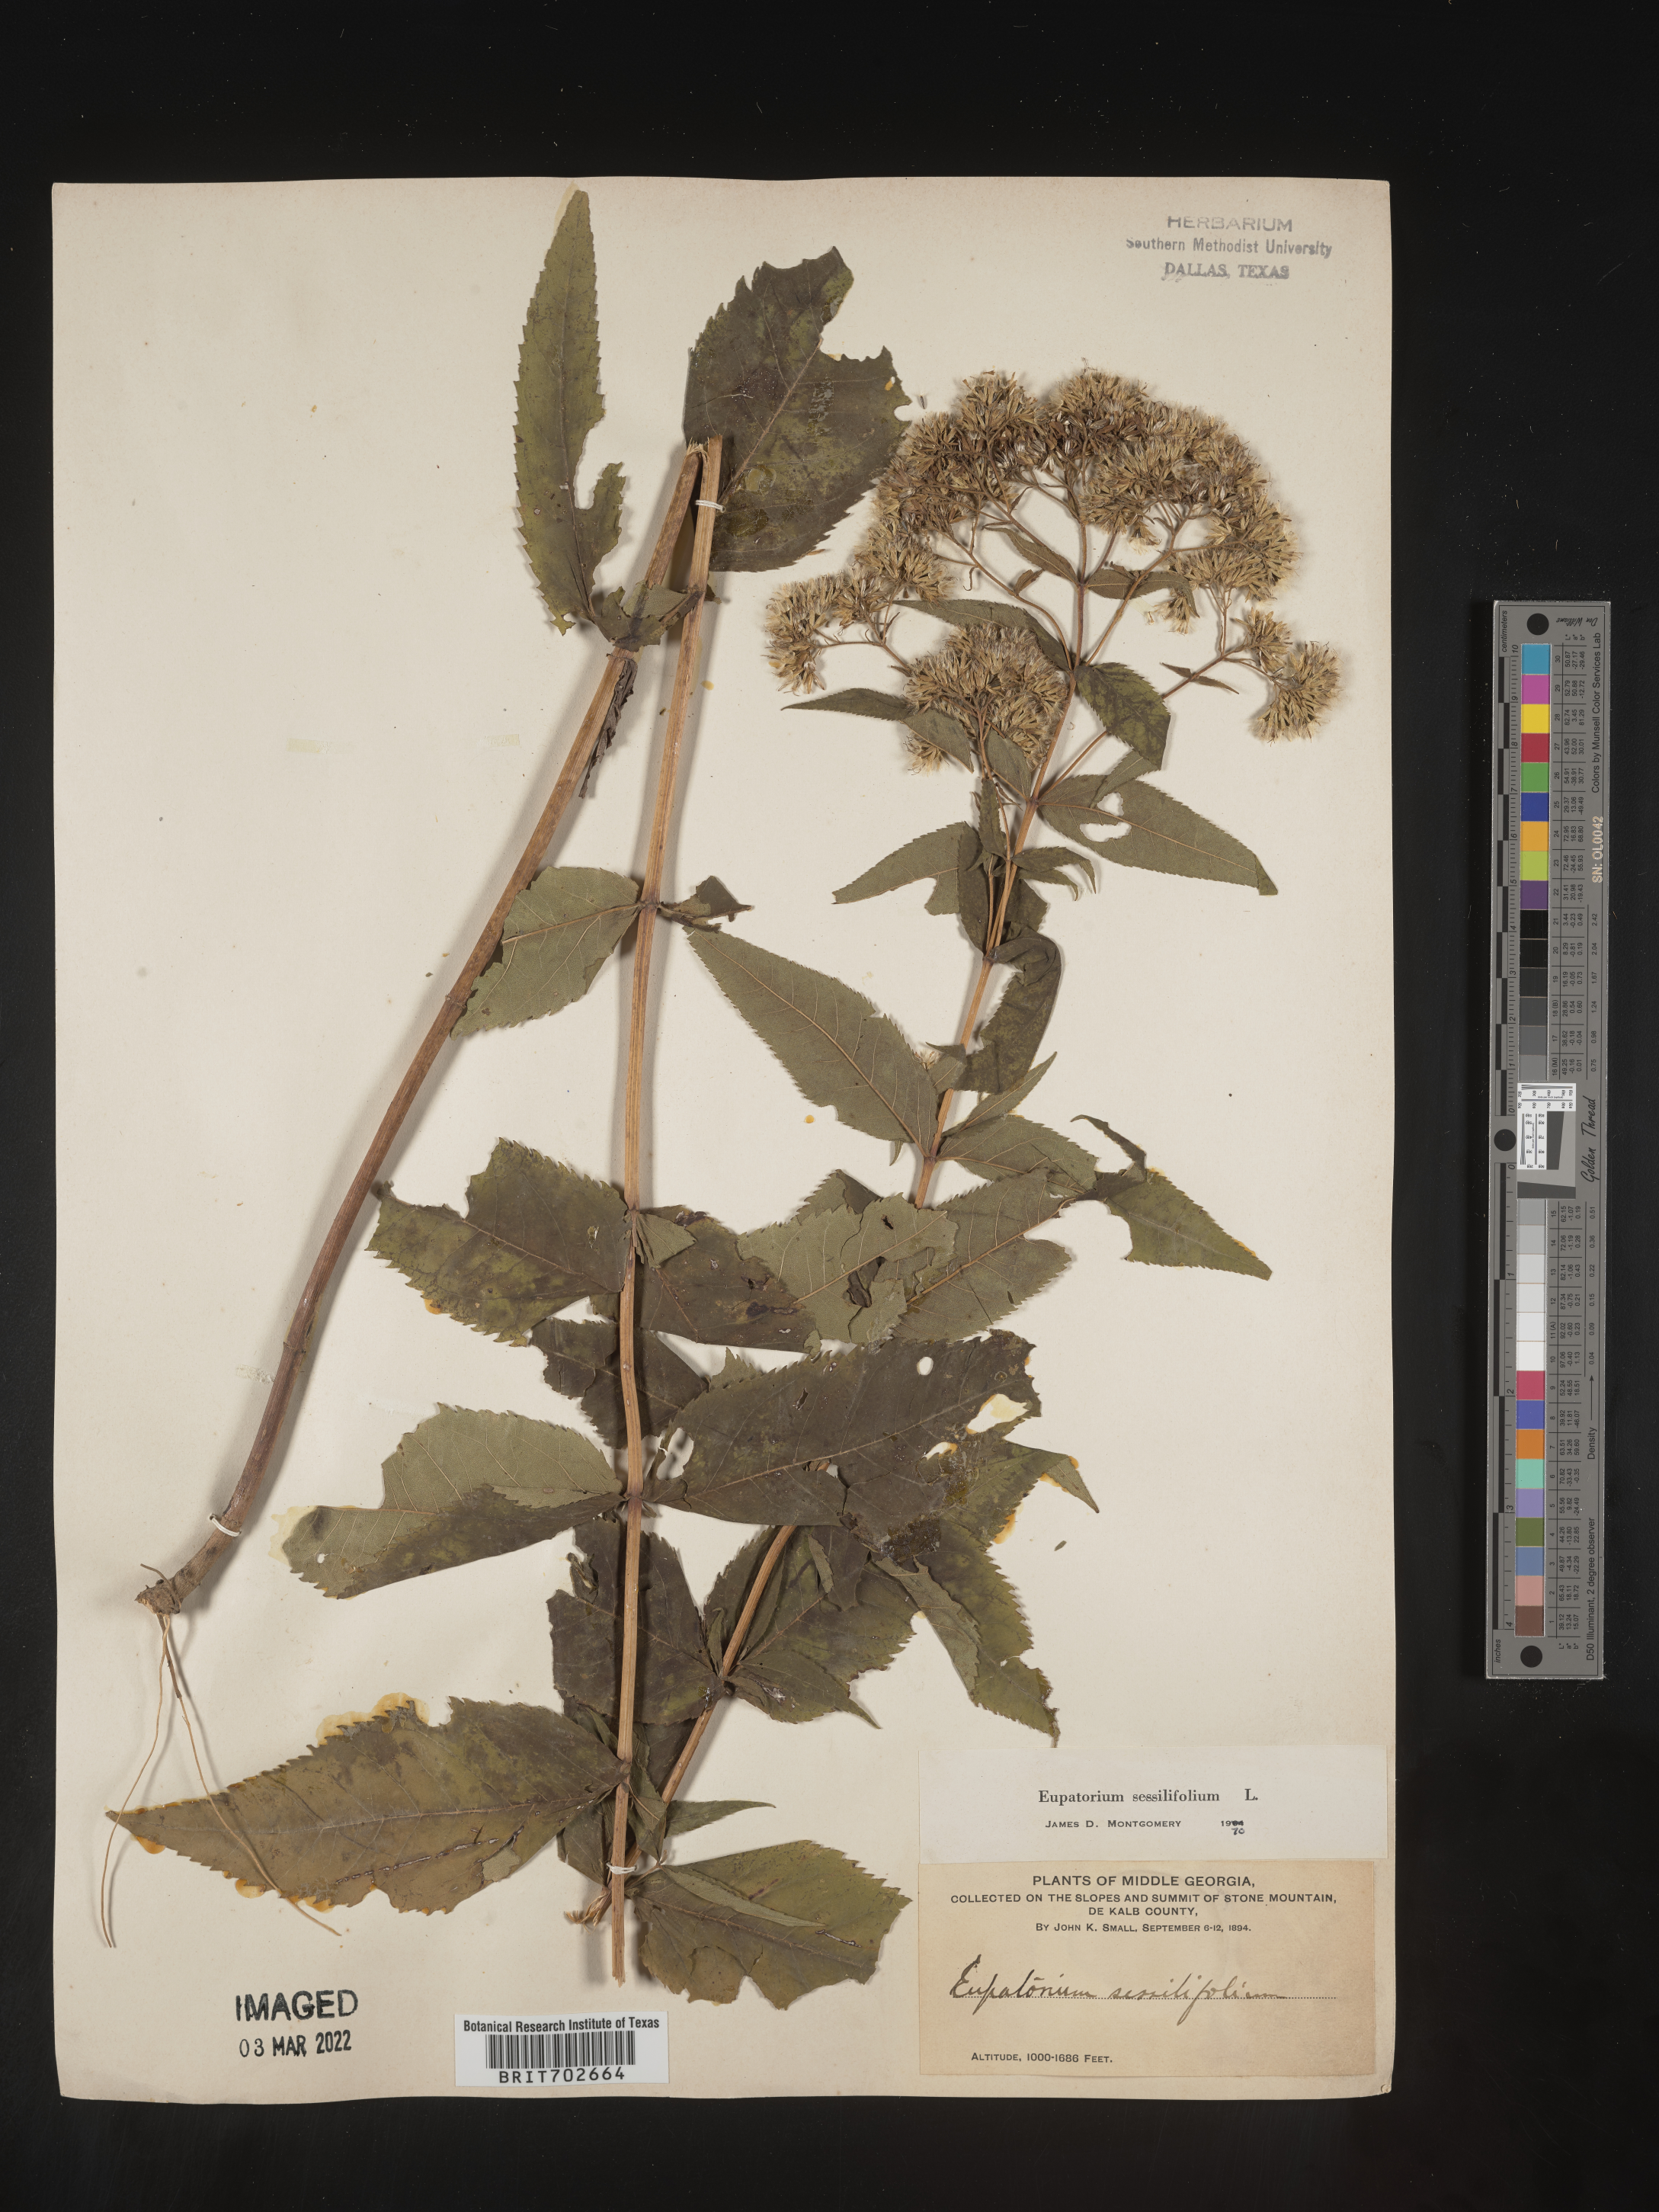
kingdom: Plantae
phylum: Tracheophyta
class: Magnoliopsida
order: Asterales
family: Asteraceae
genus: Eupatorium
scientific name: Eupatorium sessilifolium
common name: Upland boneset
